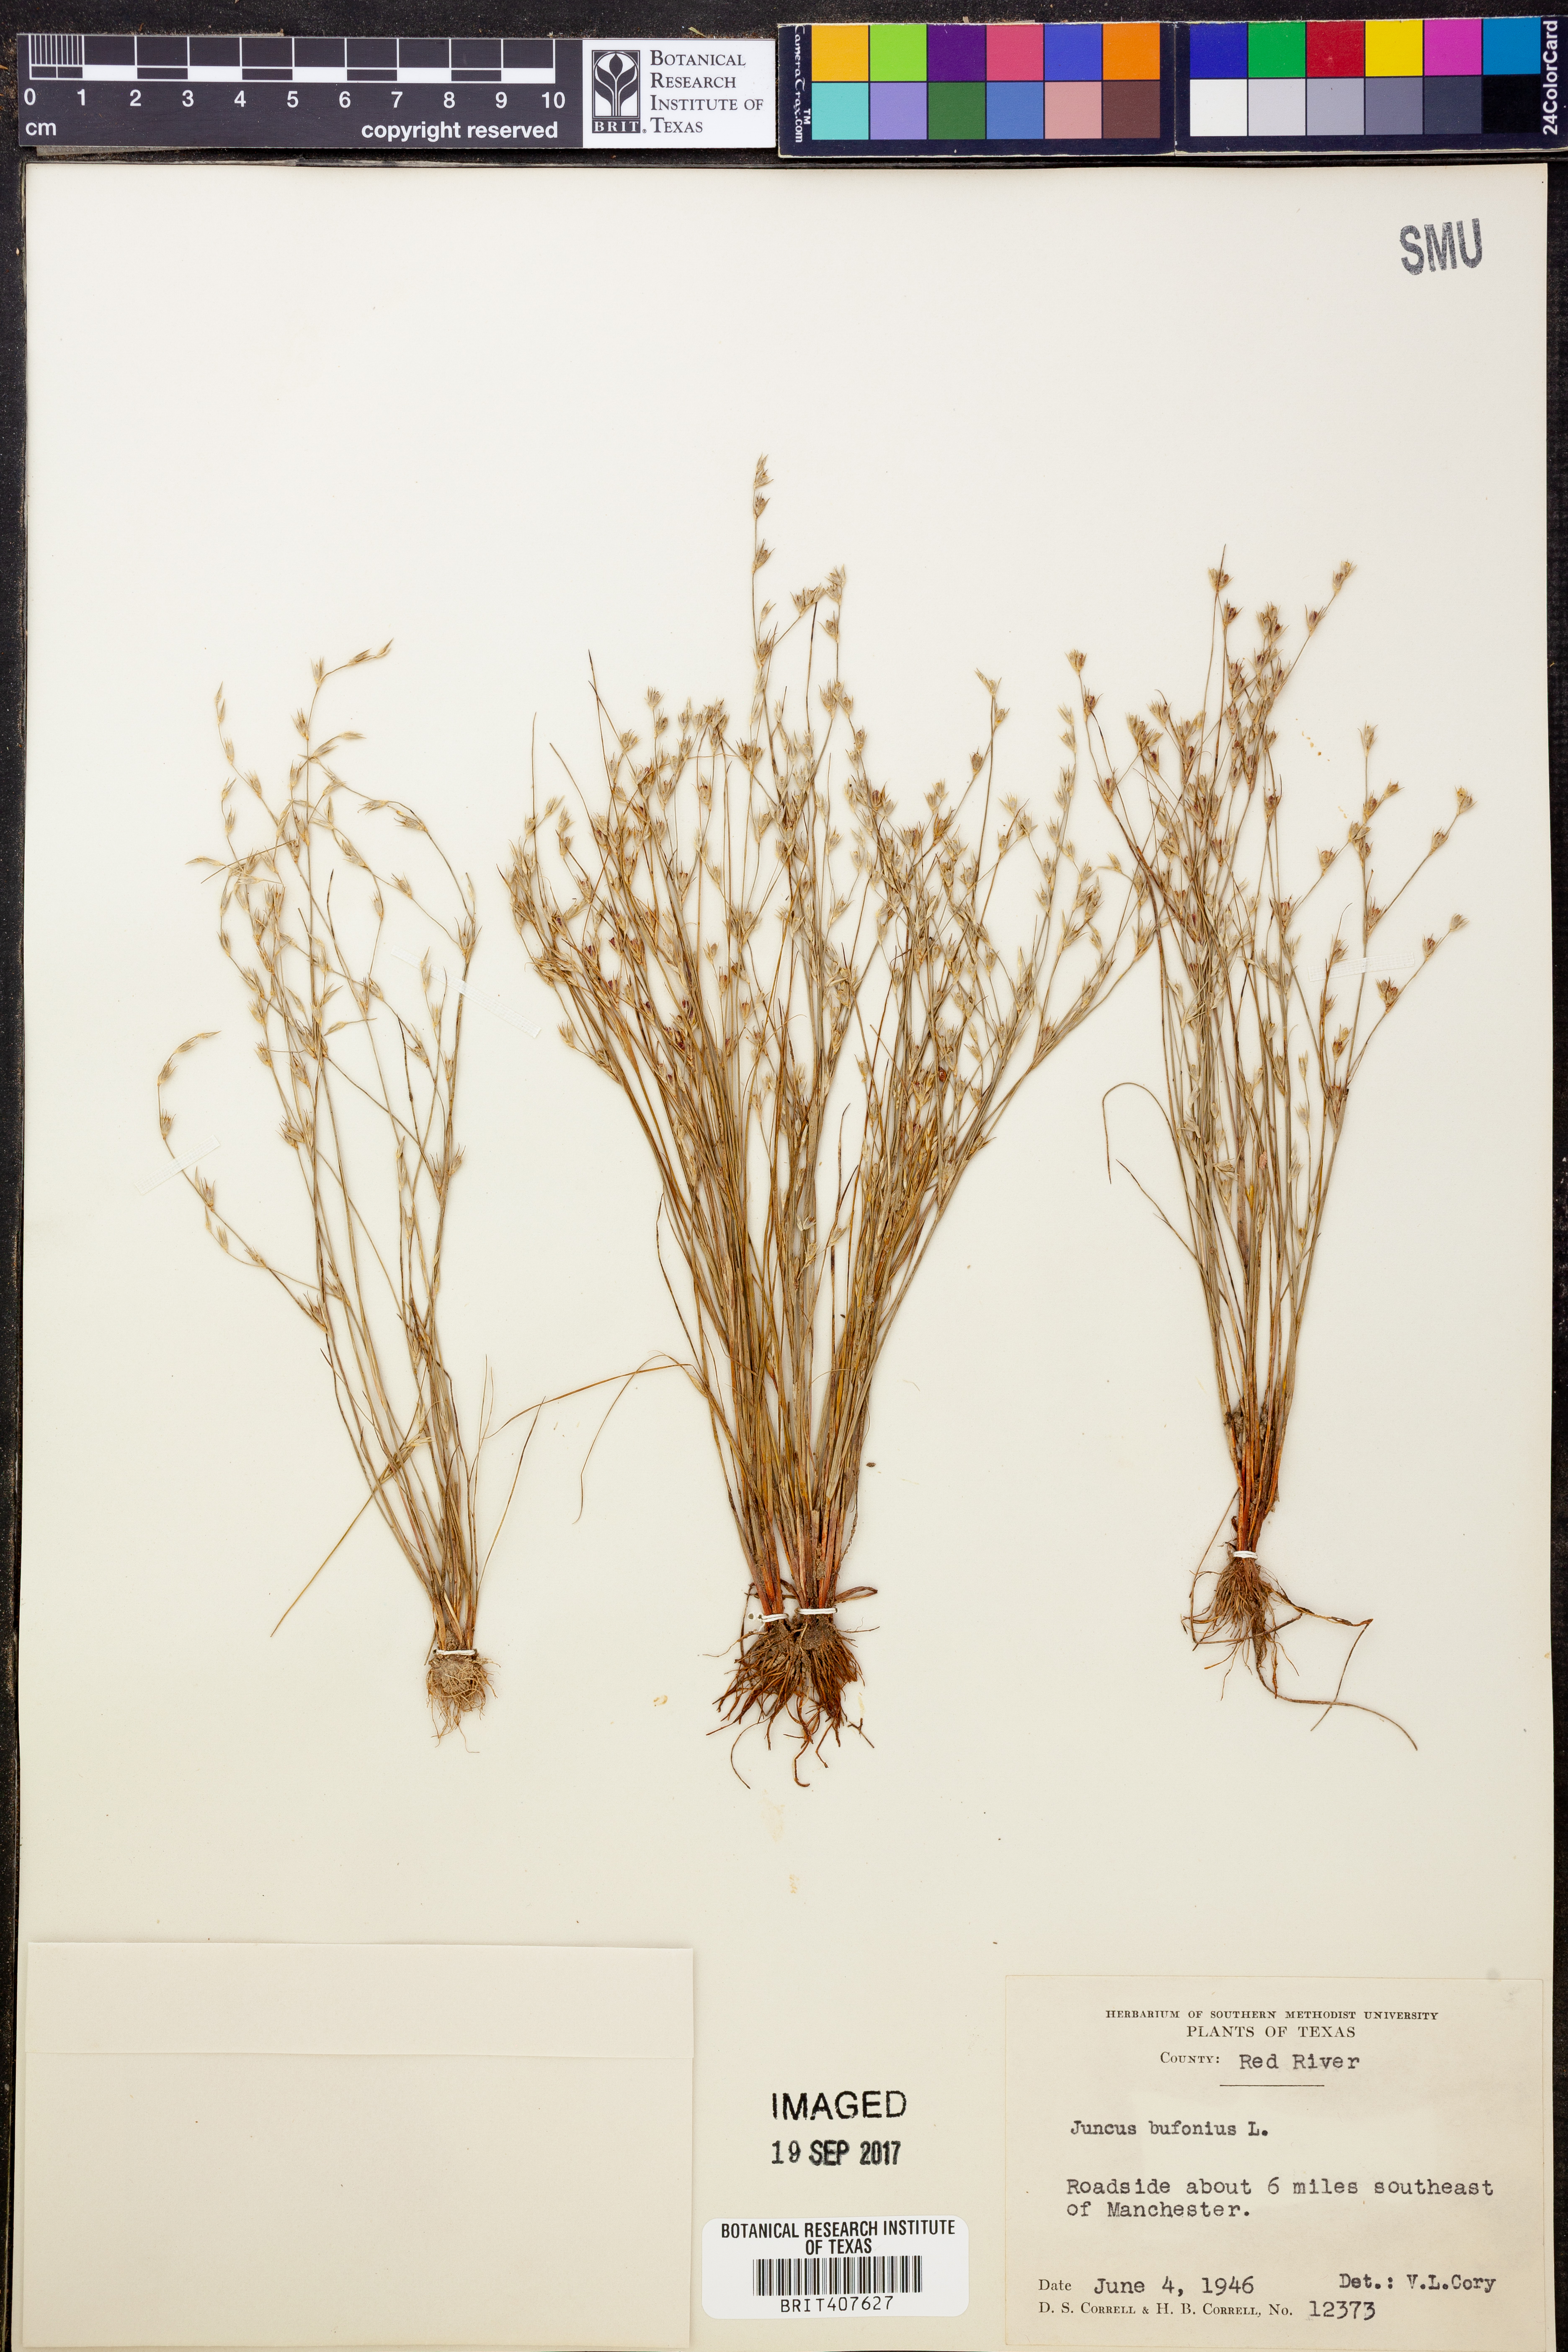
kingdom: Plantae
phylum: Tracheophyta
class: Liliopsida
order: Poales
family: Juncaceae
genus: Juncus
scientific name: Juncus bufonius
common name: Toad rush
